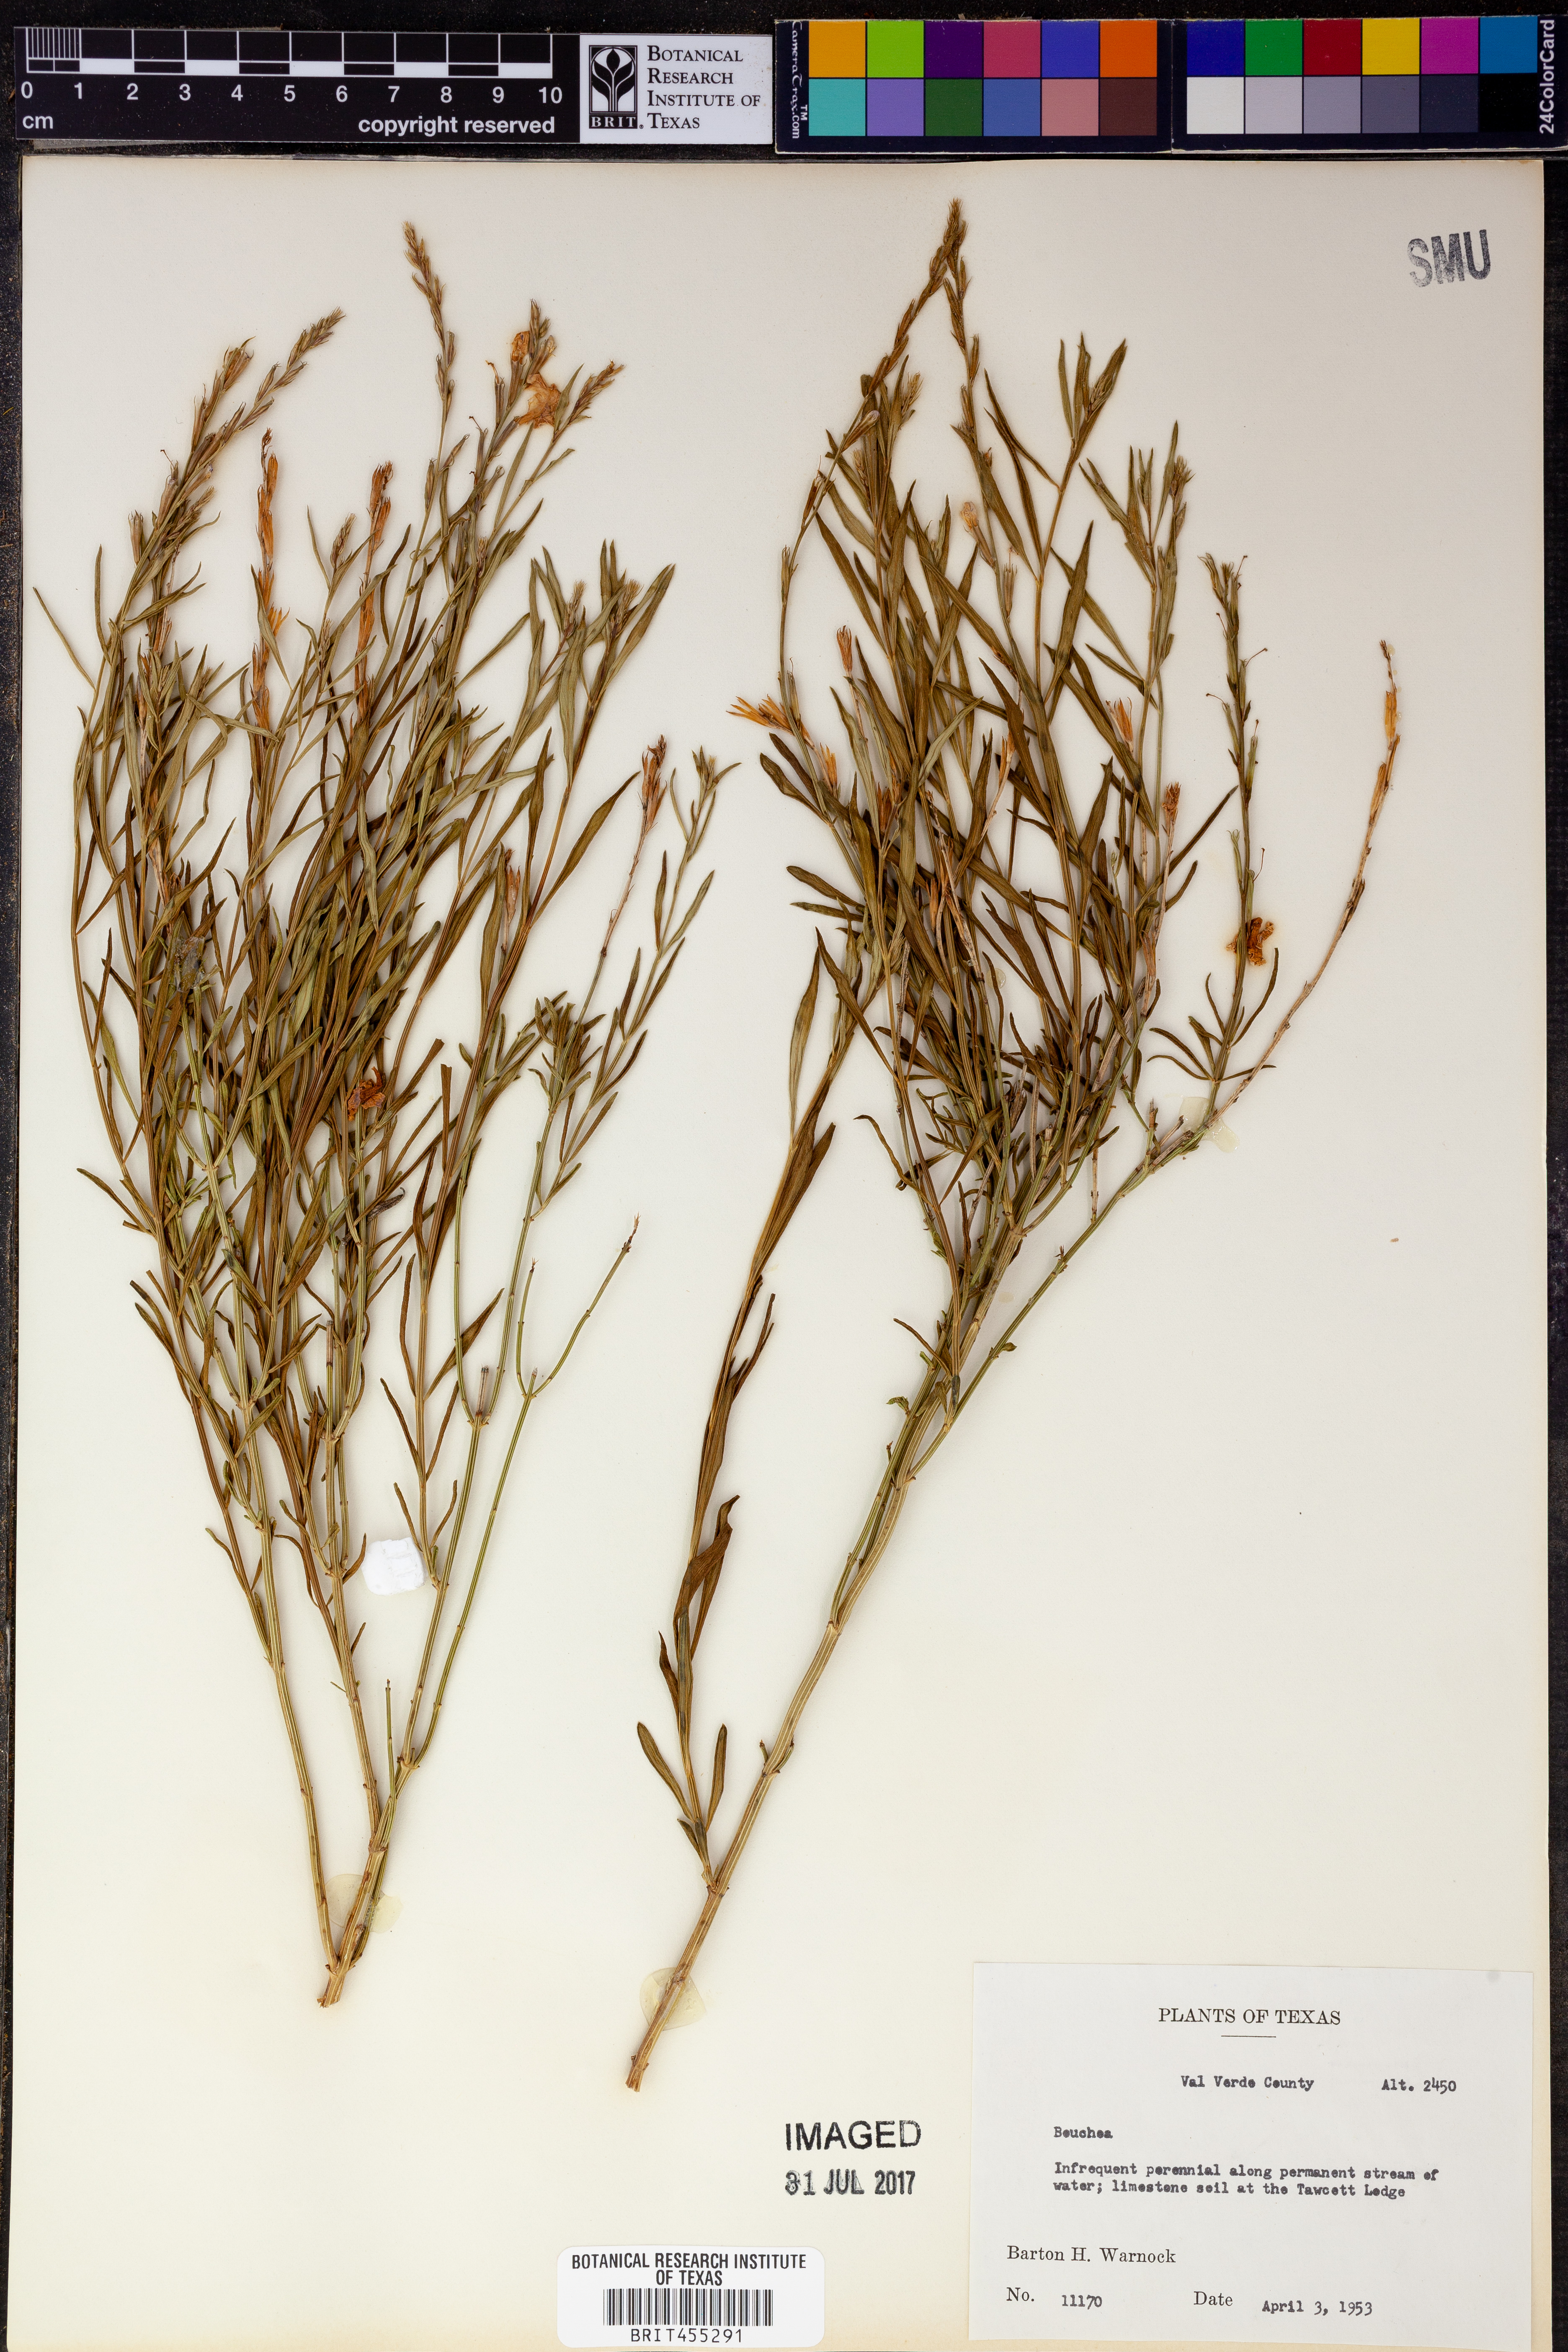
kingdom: Plantae
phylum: Tracheophyta
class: Magnoliopsida
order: Lamiales
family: Verbenaceae
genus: Bouchea
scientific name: Bouchea
